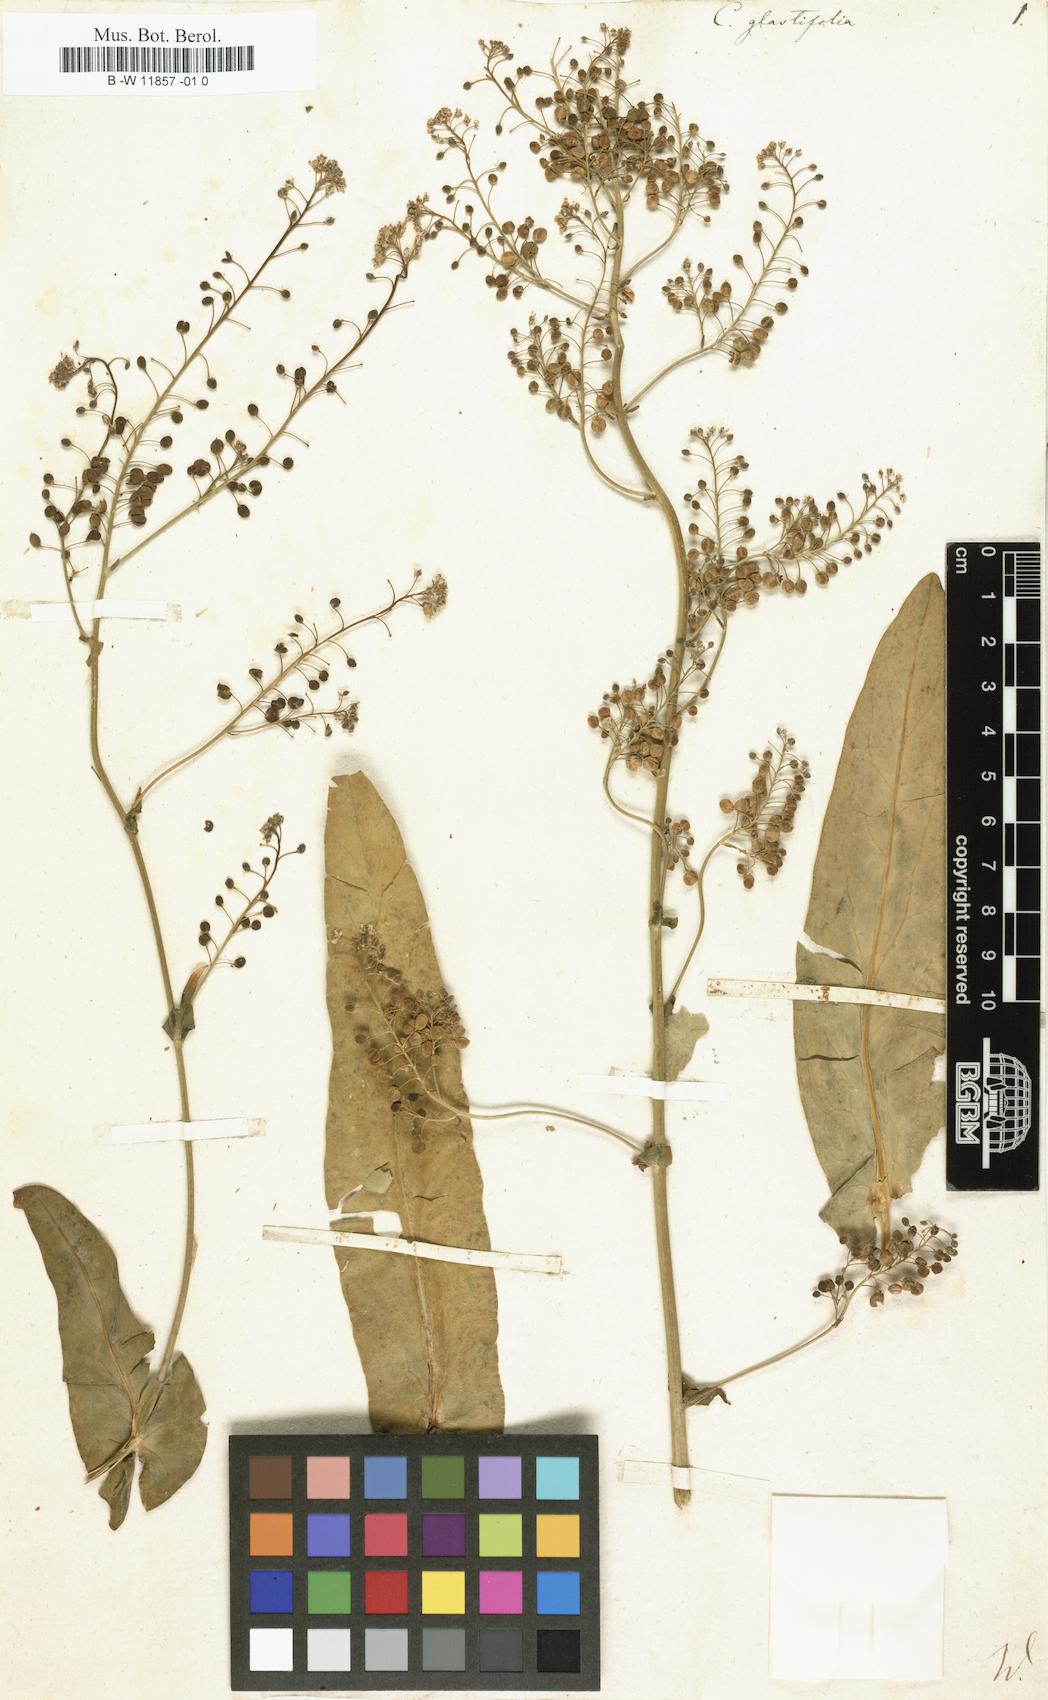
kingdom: Plantae
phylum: Tracheophyta
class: Magnoliopsida
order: Brassicales
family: Brassicaceae
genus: Cochlearia
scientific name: Cochlearia glastifolia
